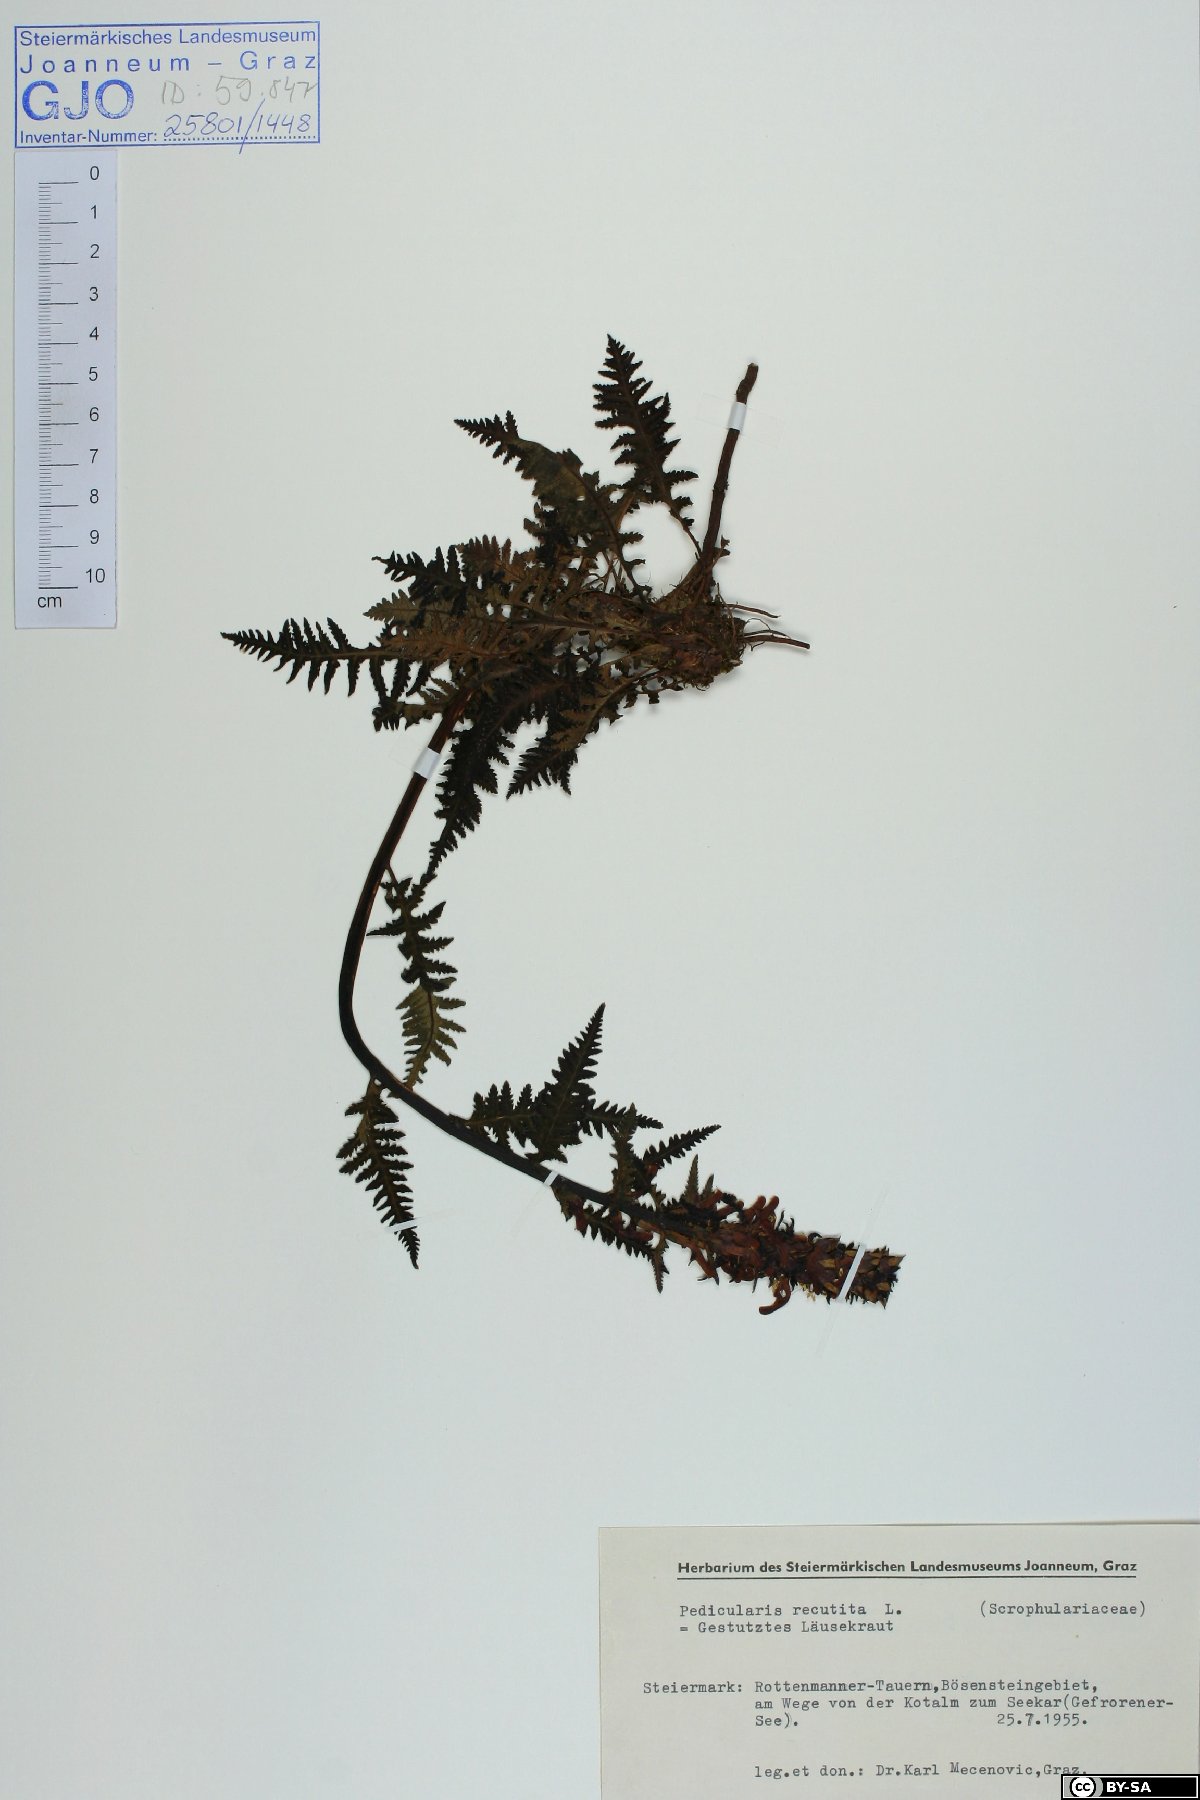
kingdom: Plantae
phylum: Tracheophyta
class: Magnoliopsida
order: Lamiales
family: Orobanchaceae
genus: Pedicularis
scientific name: Pedicularis recutita
